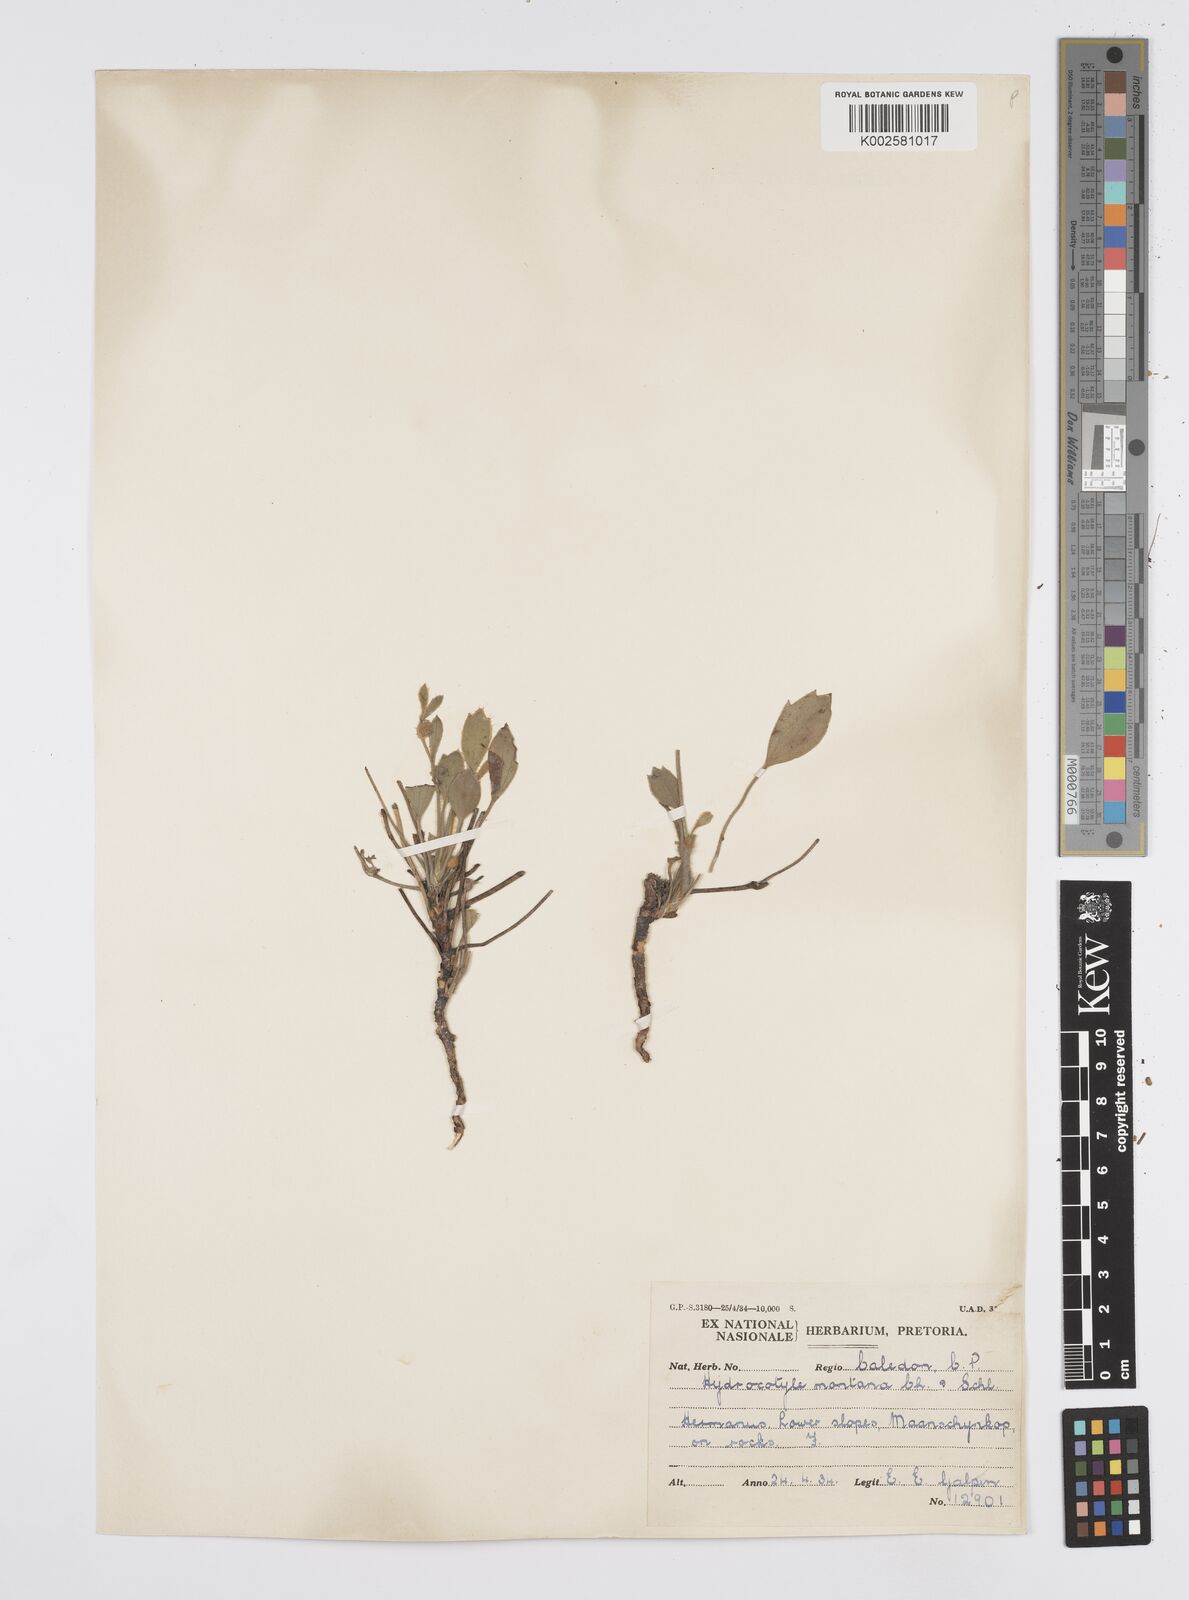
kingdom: Plantae
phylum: Tracheophyta
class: Magnoliopsida
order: Apiales
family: Apiaceae
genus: Centella
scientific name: Centella difformis
